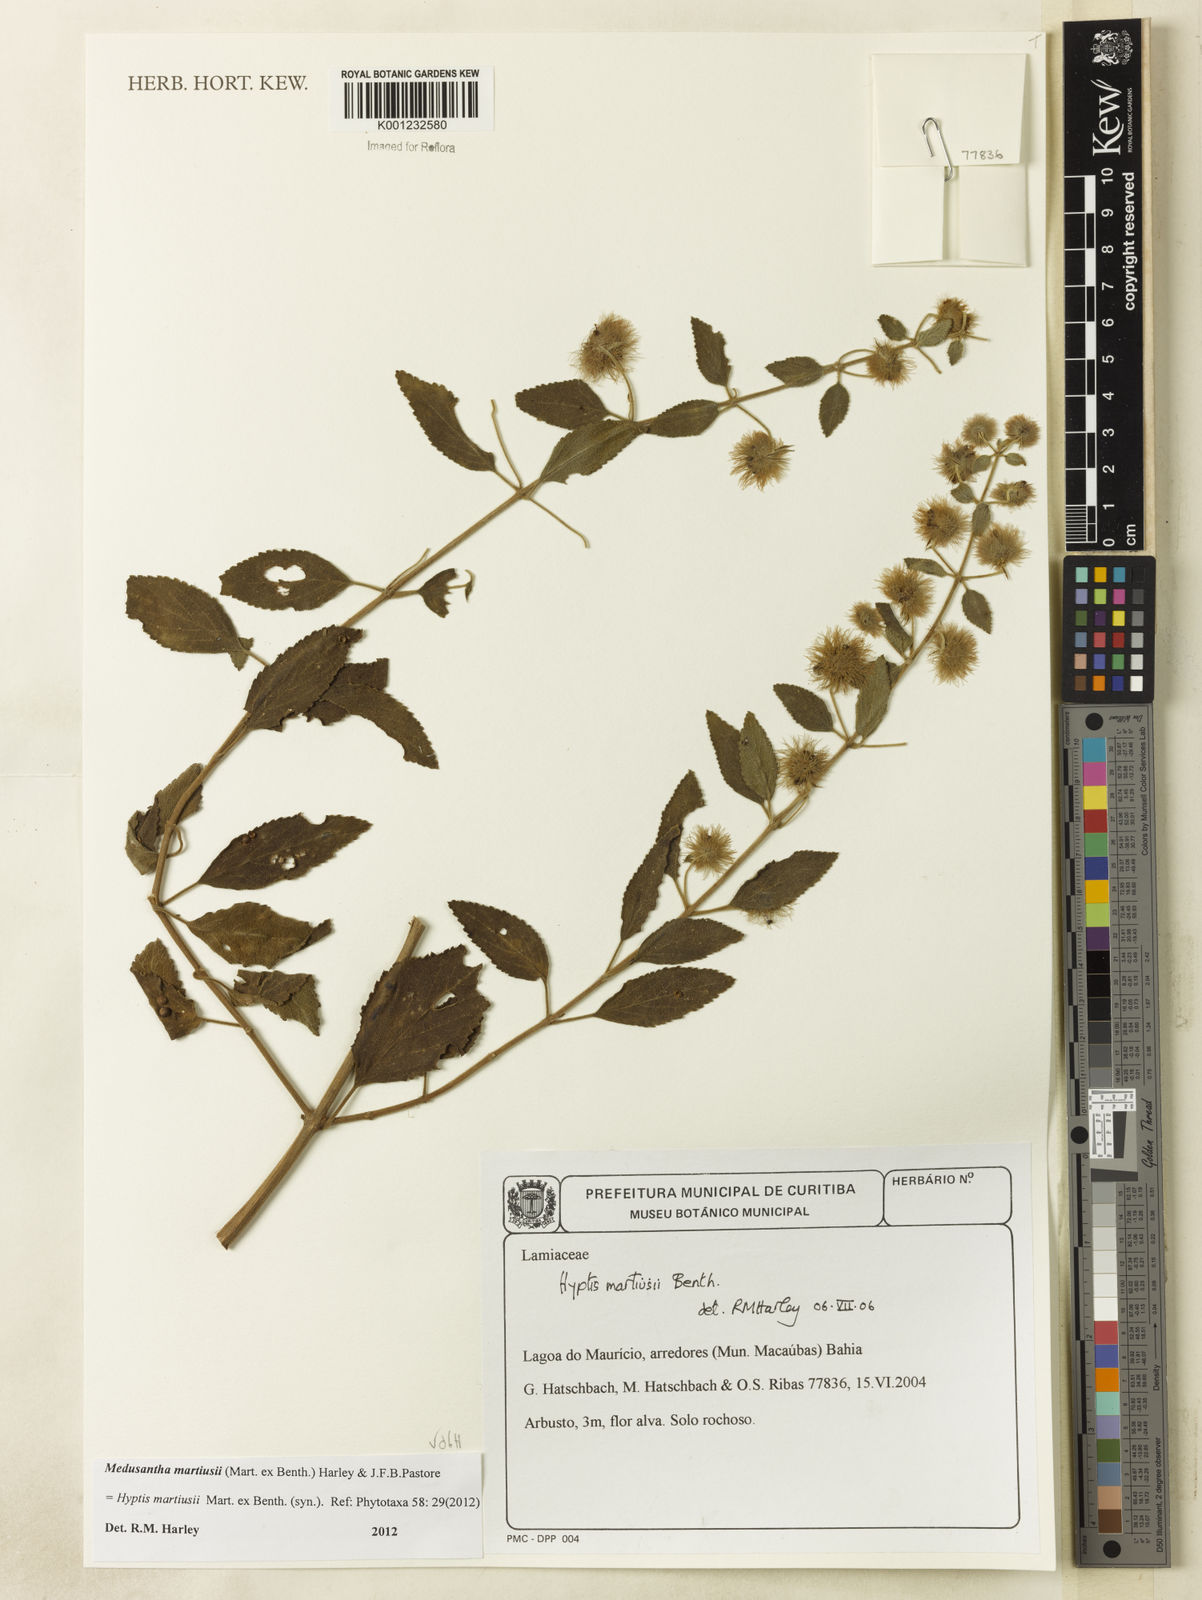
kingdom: Plantae
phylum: Tracheophyta
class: Magnoliopsida
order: Lamiales
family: Lamiaceae
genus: Medusantha
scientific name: Medusantha martiusii
